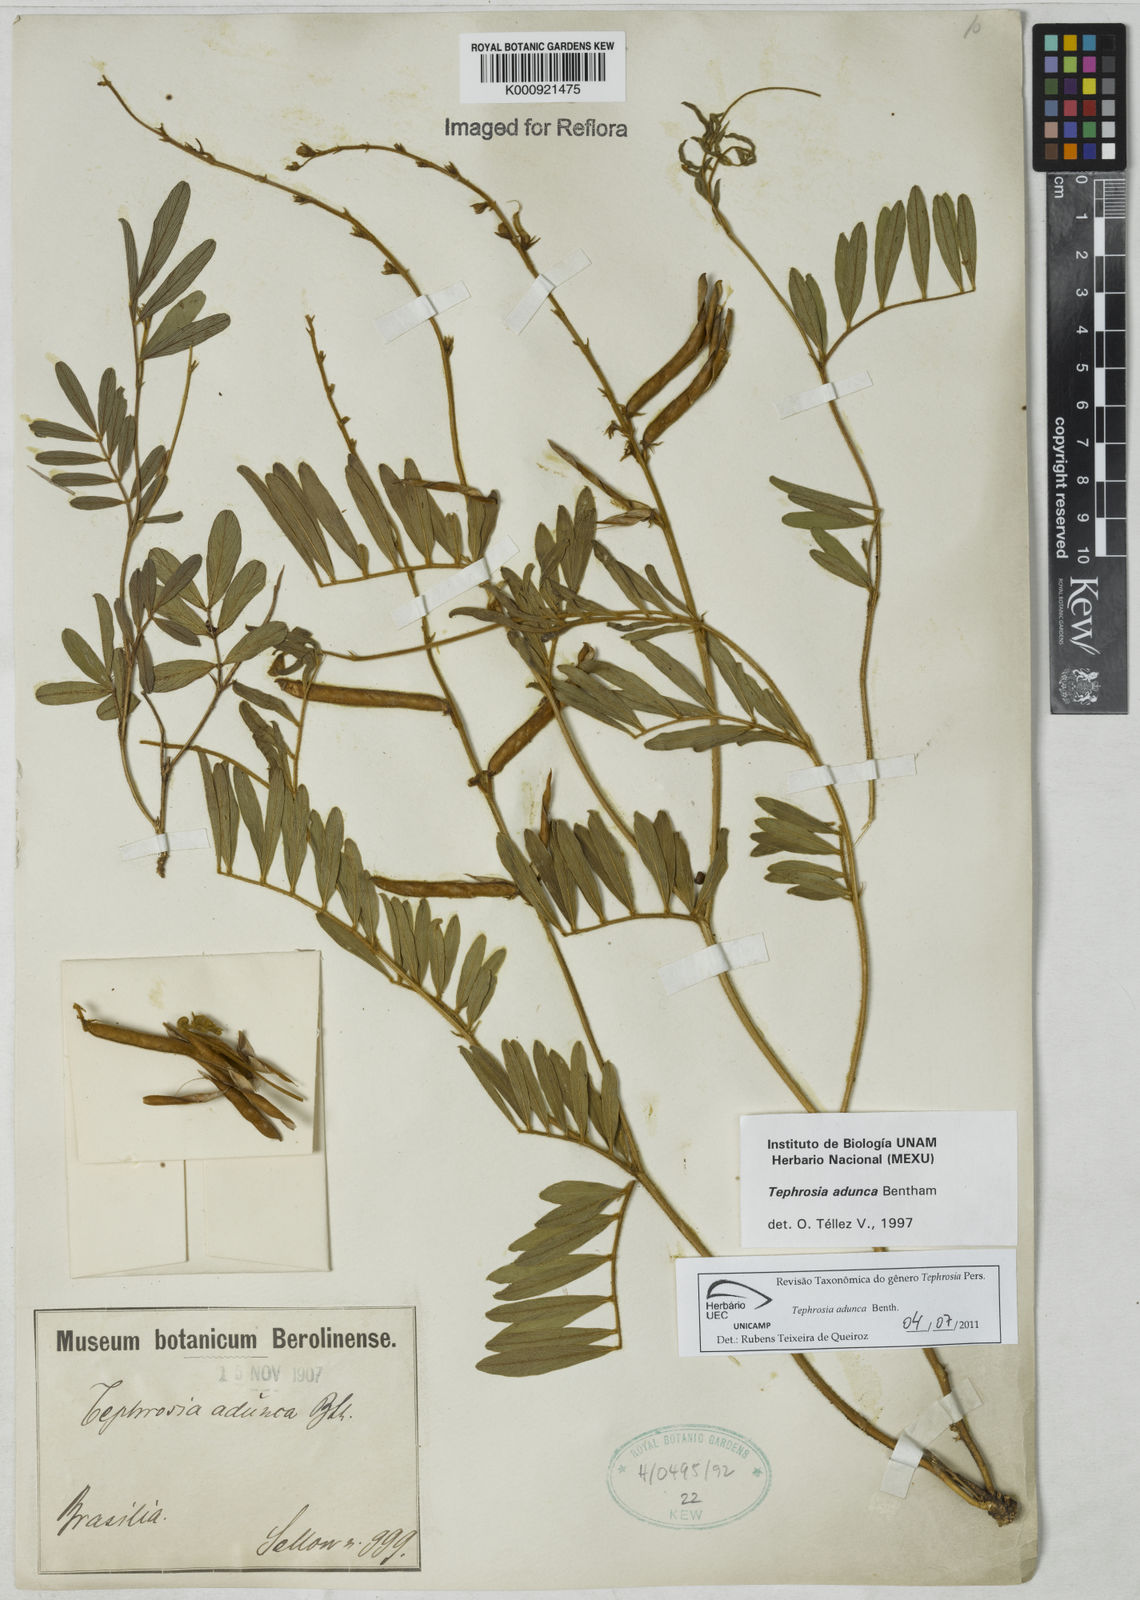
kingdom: Plantae
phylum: Tracheophyta
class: Magnoliopsida
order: Fabales
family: Fabaceae
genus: Tephrosia
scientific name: Tephrosia adunca
